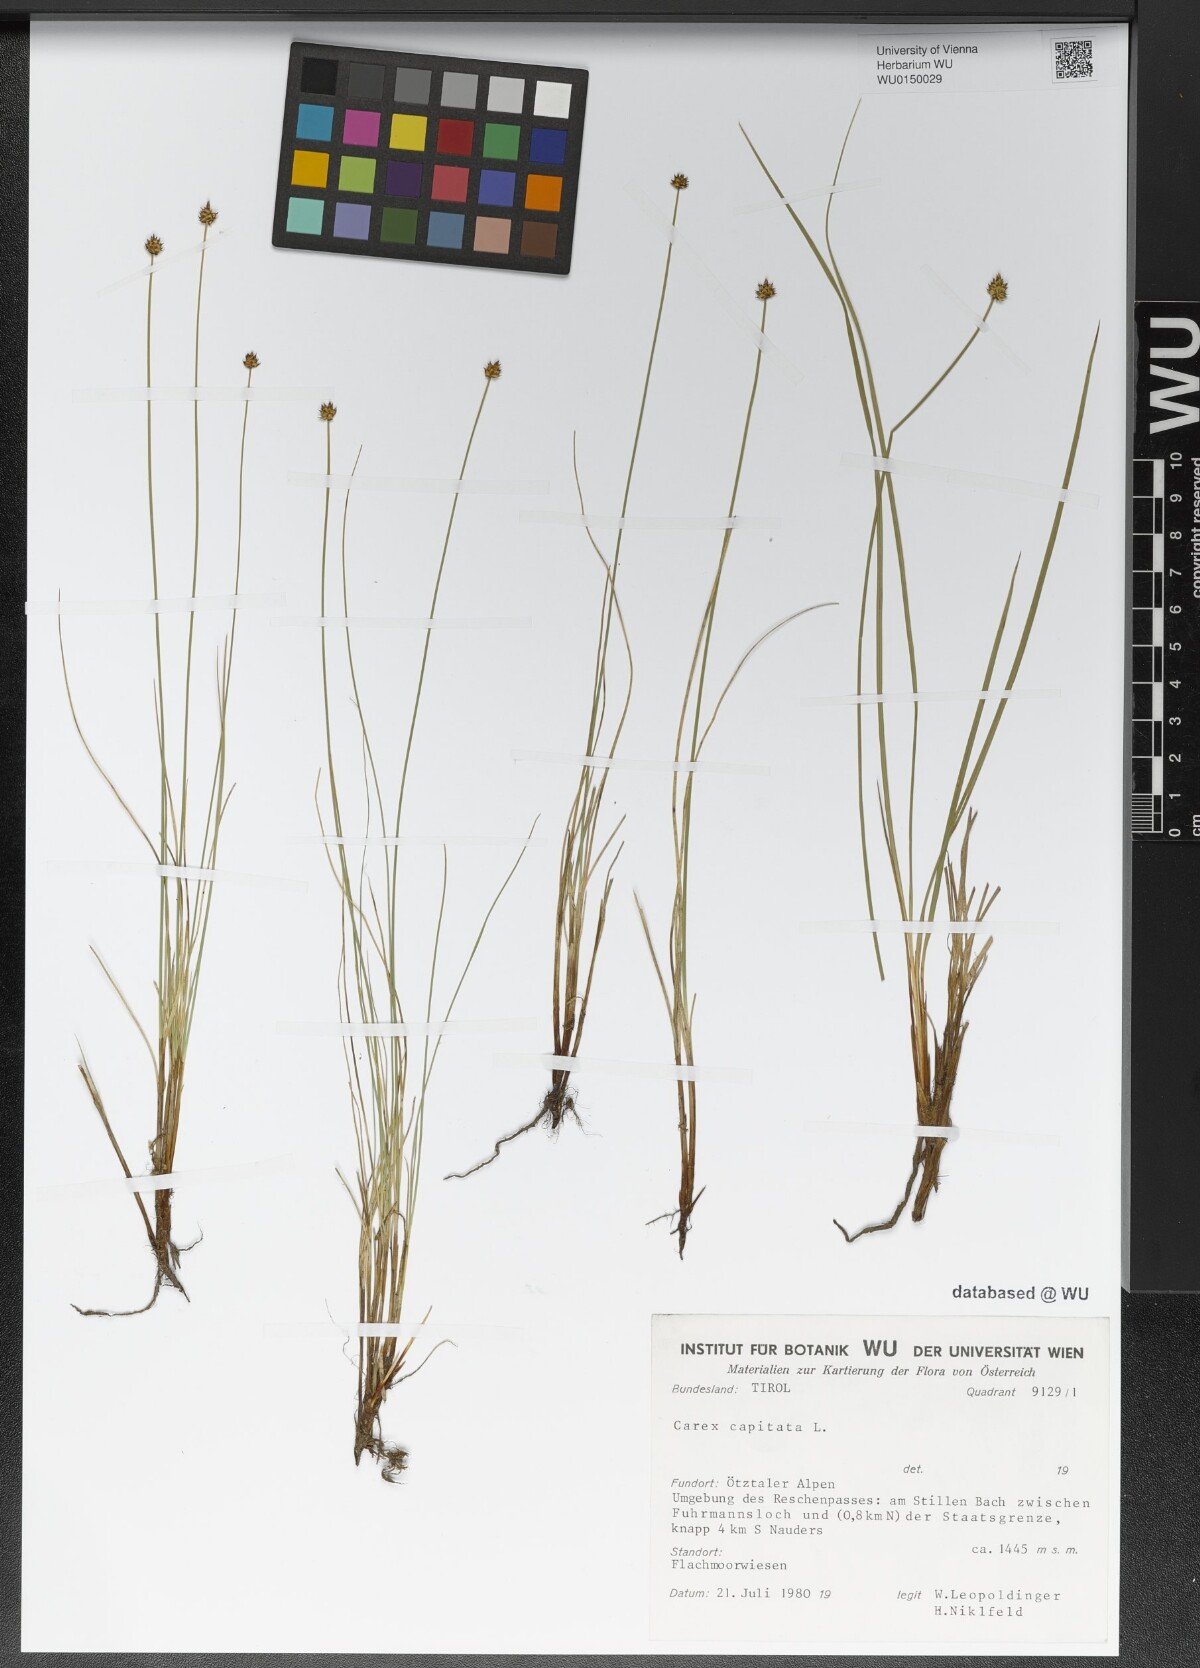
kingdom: Plantae
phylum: Tracheophyta
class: Liliopsida
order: Poales
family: Cyperaceae
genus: Carex
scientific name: Carex capitata
